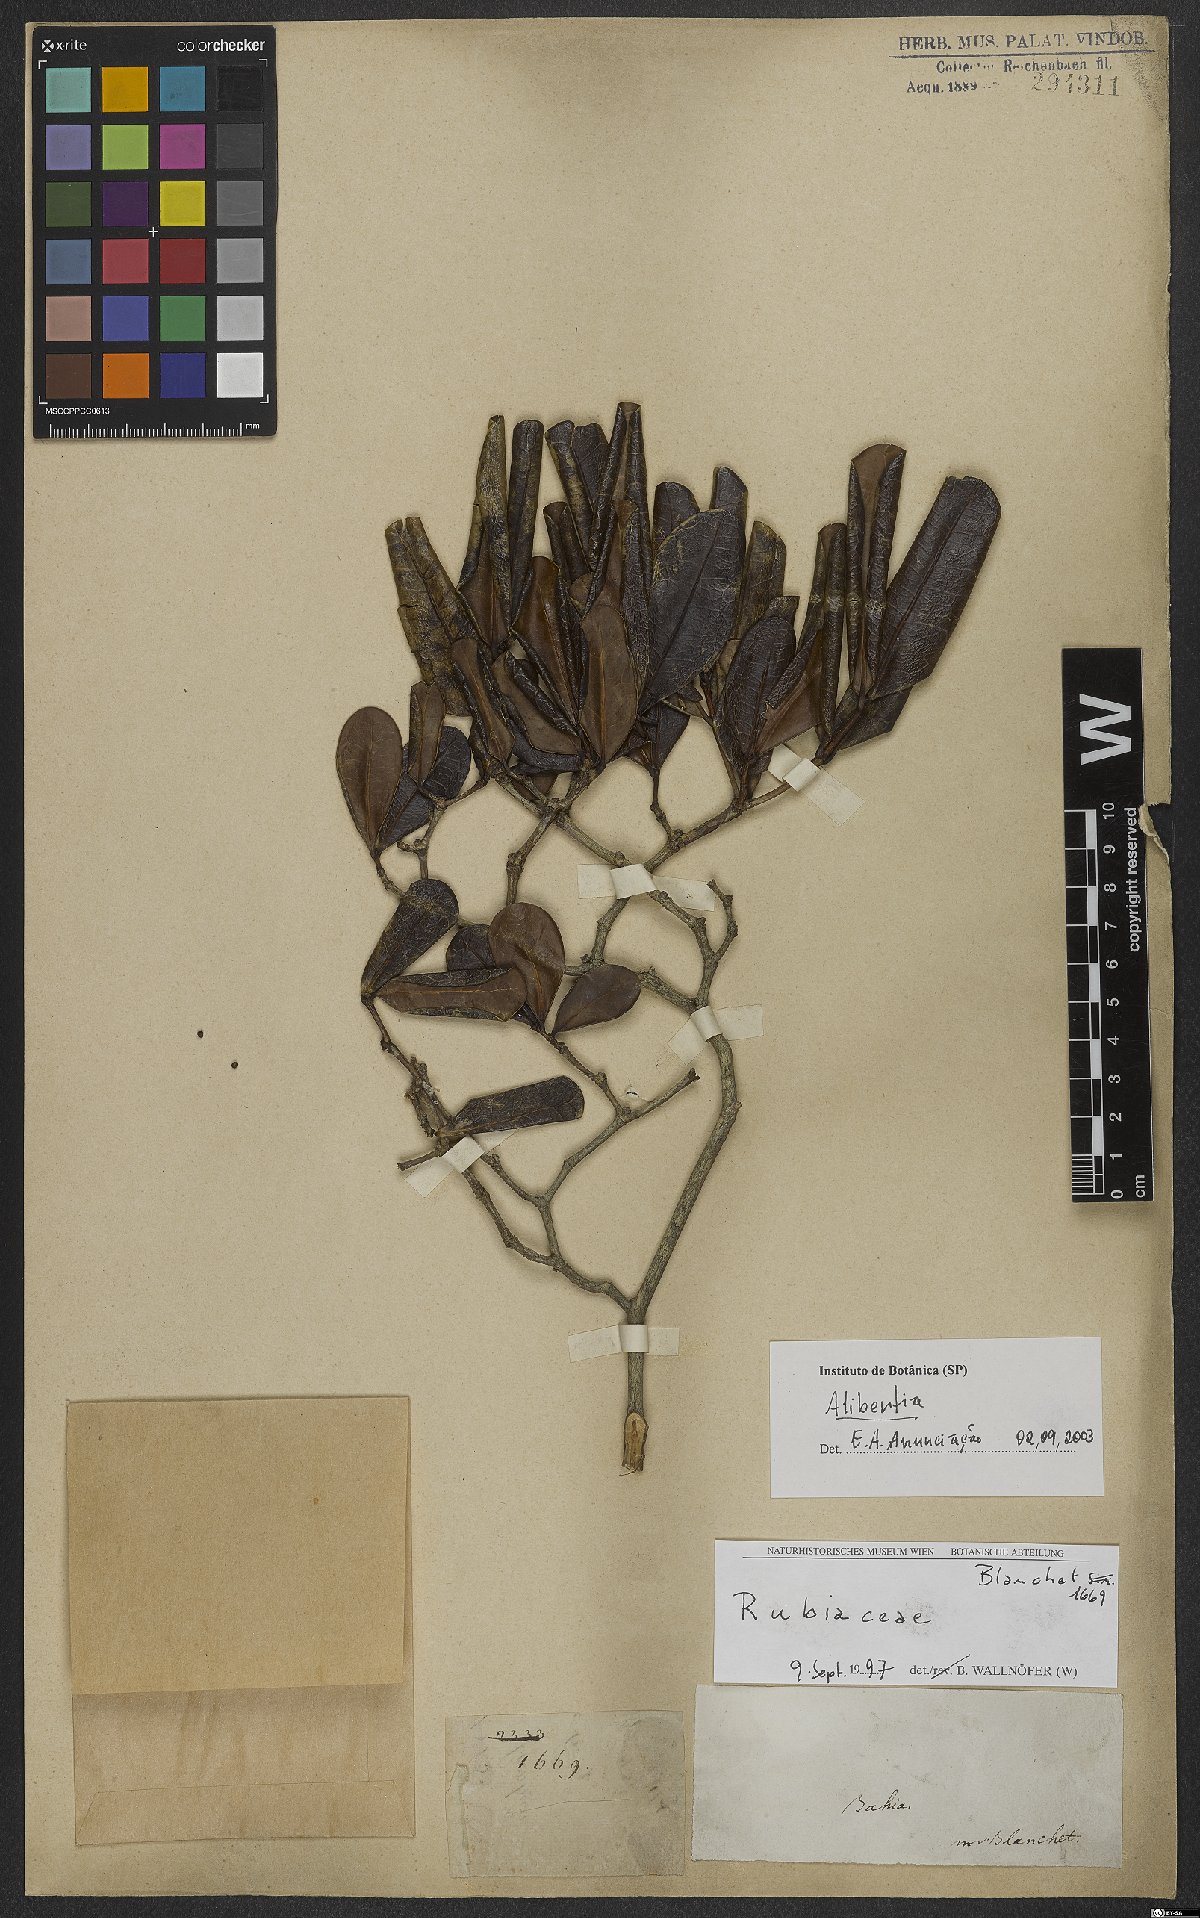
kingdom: Plantae
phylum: Tracheophyta
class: Magnoliopsida
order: Gentianales
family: Rubiaceae
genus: Alibertia
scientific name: Alibertia
